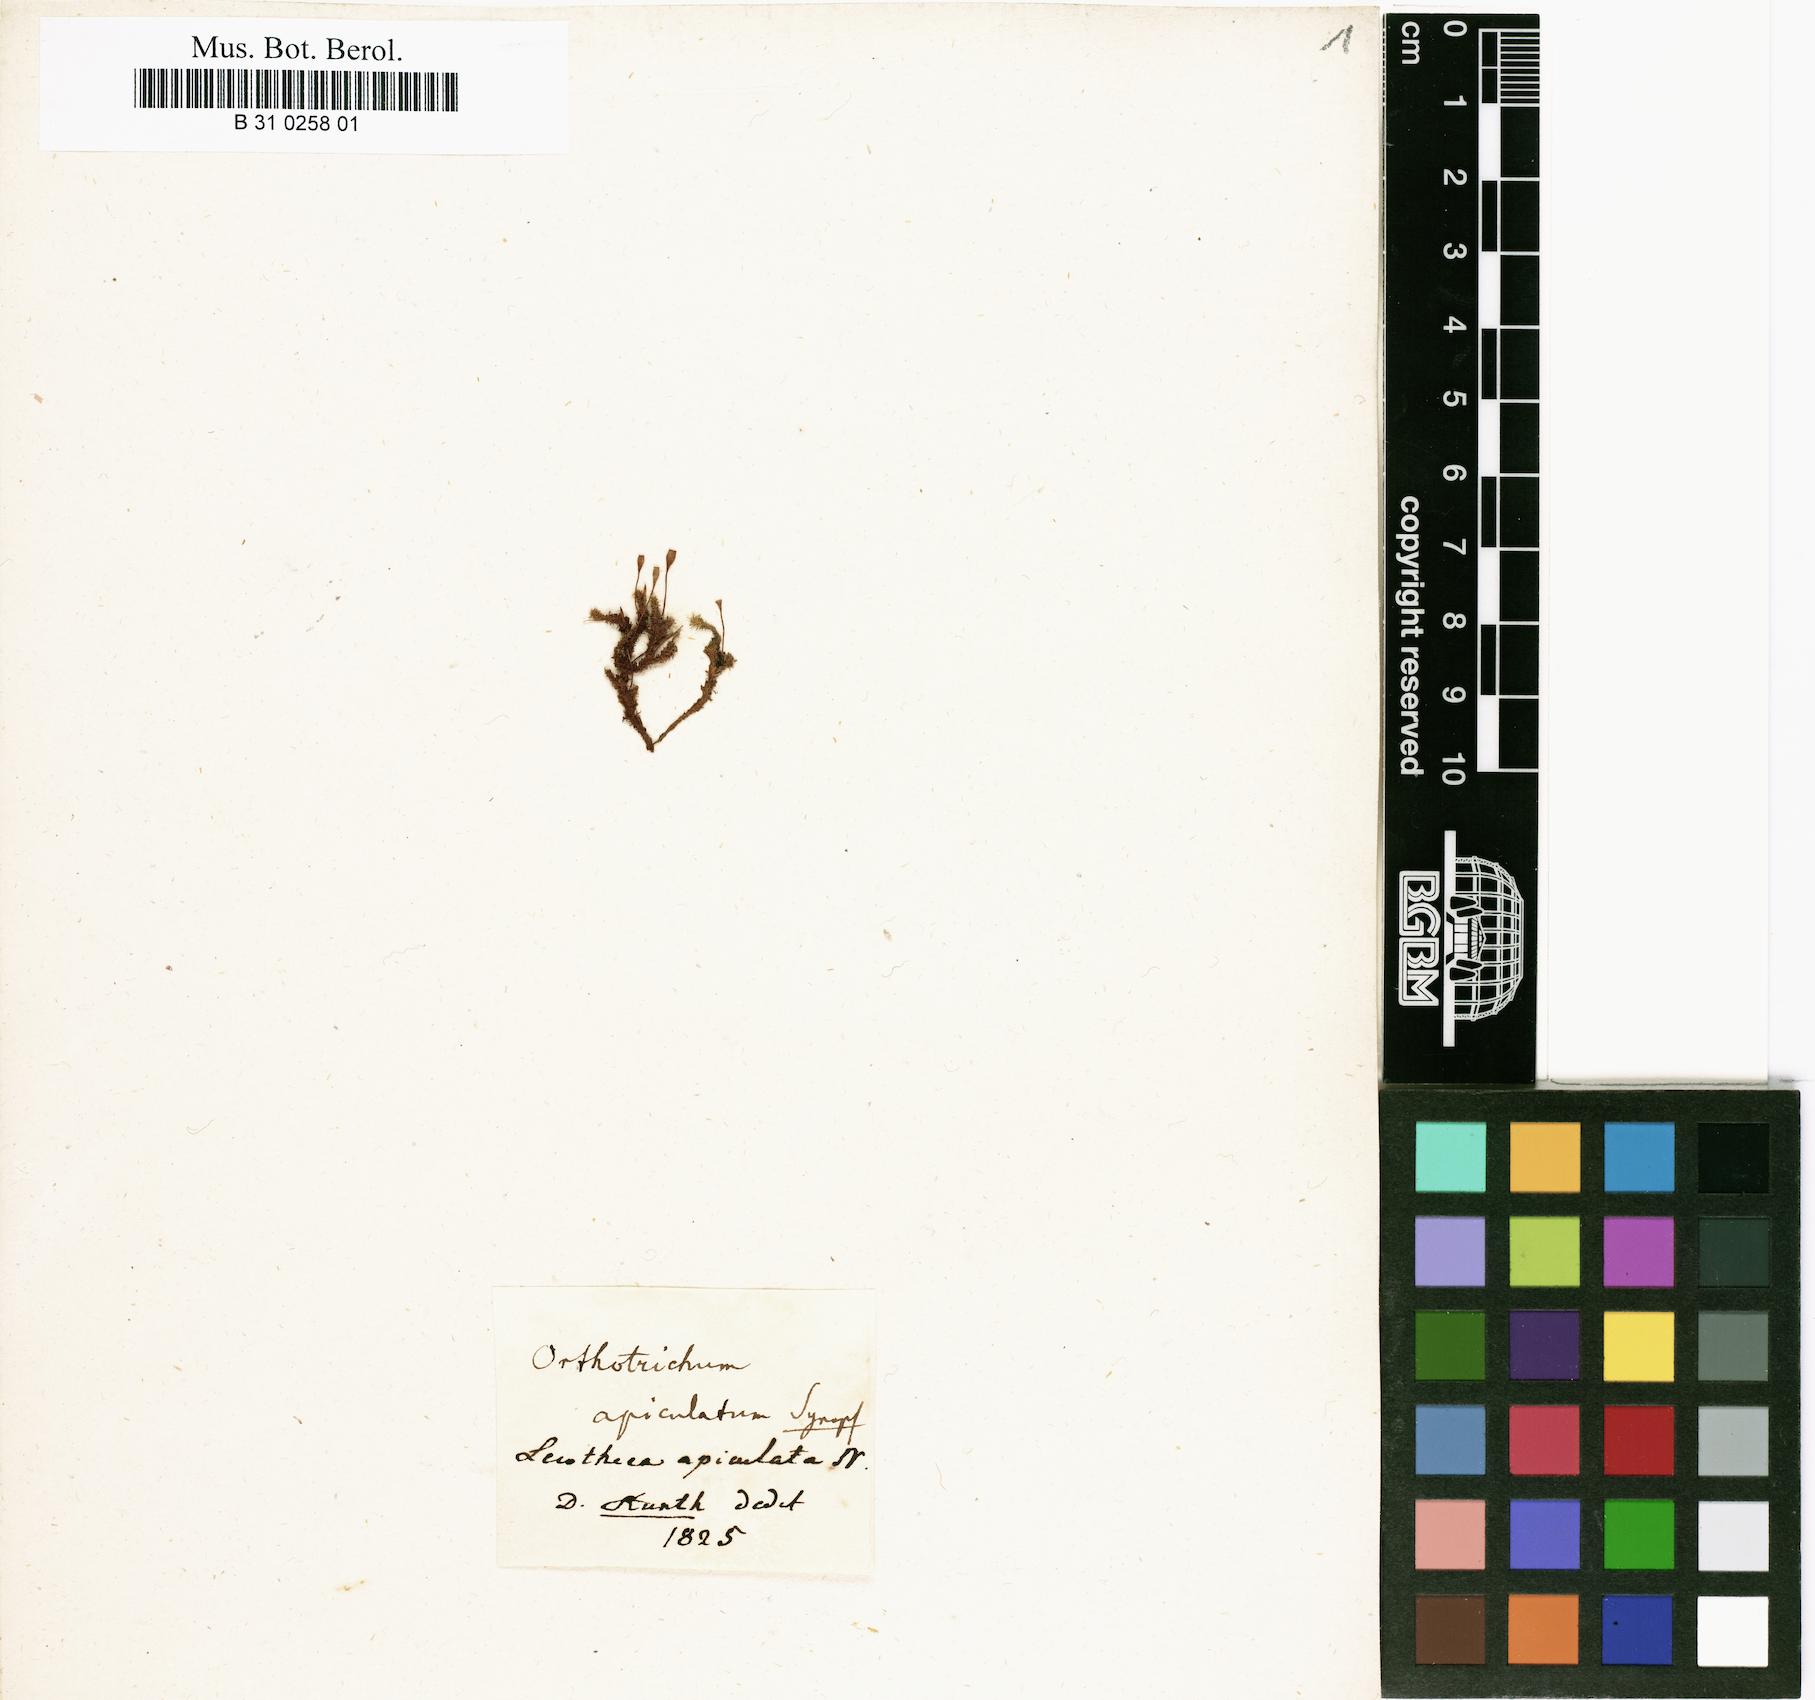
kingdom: Plantae
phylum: Bryophyta
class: Bryopsida
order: Orthotrichales
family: Orthotrichaceae
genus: Groutiella
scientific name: Groutiella apiculata
